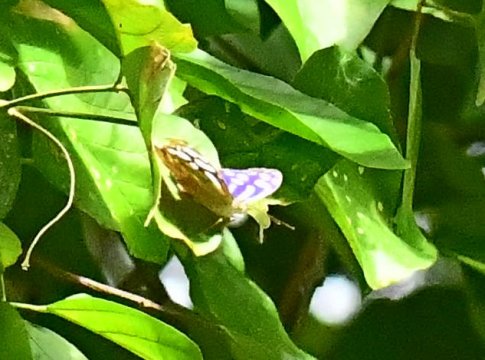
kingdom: Animalia
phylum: Arthropoda
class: Insecta
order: Lepidoptera
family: Nymphalidae
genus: Myscelia
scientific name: Myscelia cyaniris
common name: Whitened Bluewing
